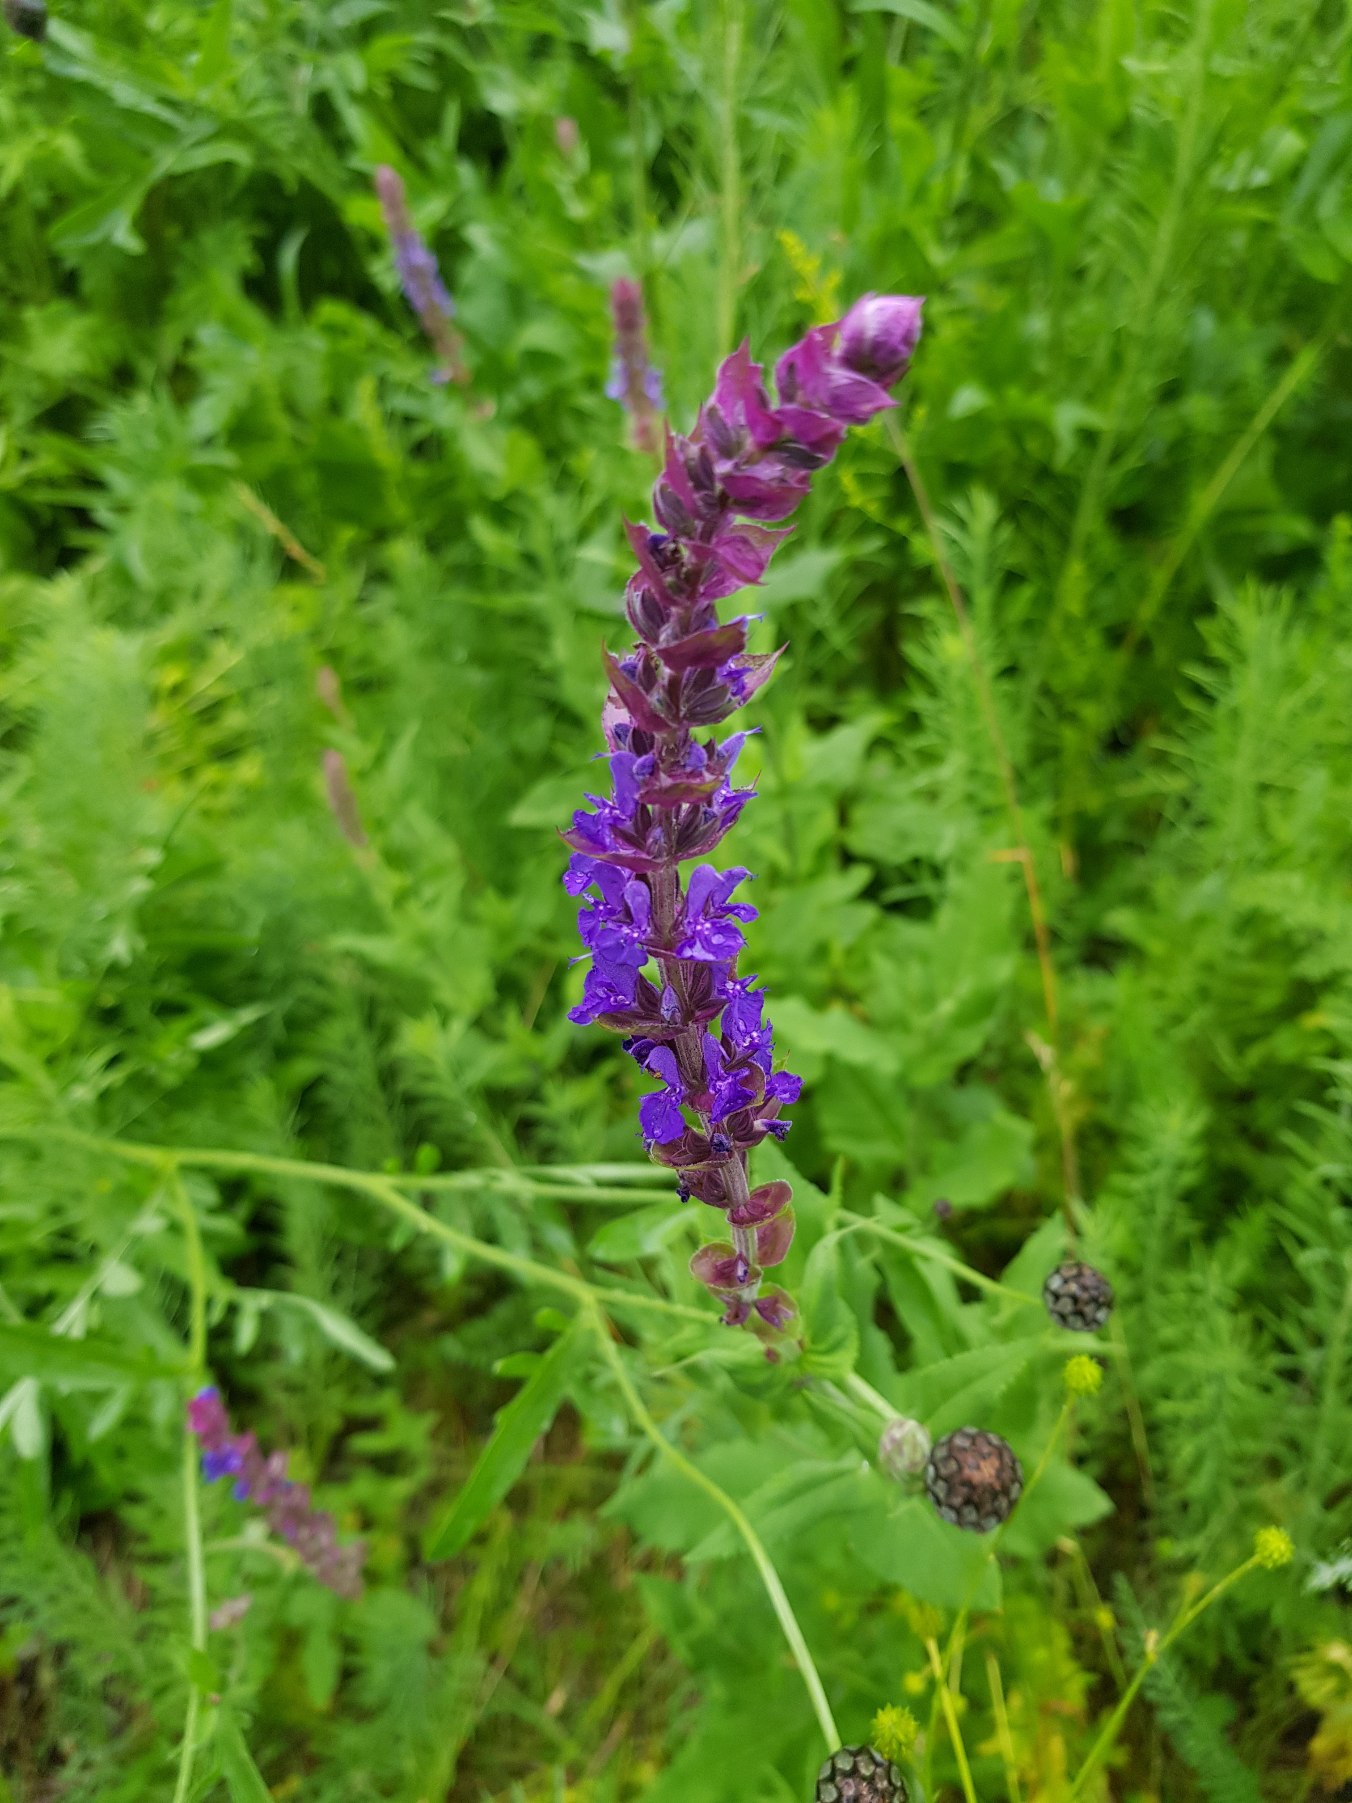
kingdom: Plantae
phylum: Tracheophyta
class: Magnoliopsida
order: Lamiales
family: Lamiaceae
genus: Salvia
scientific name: Salvia viridis
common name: Dusk-salvie
